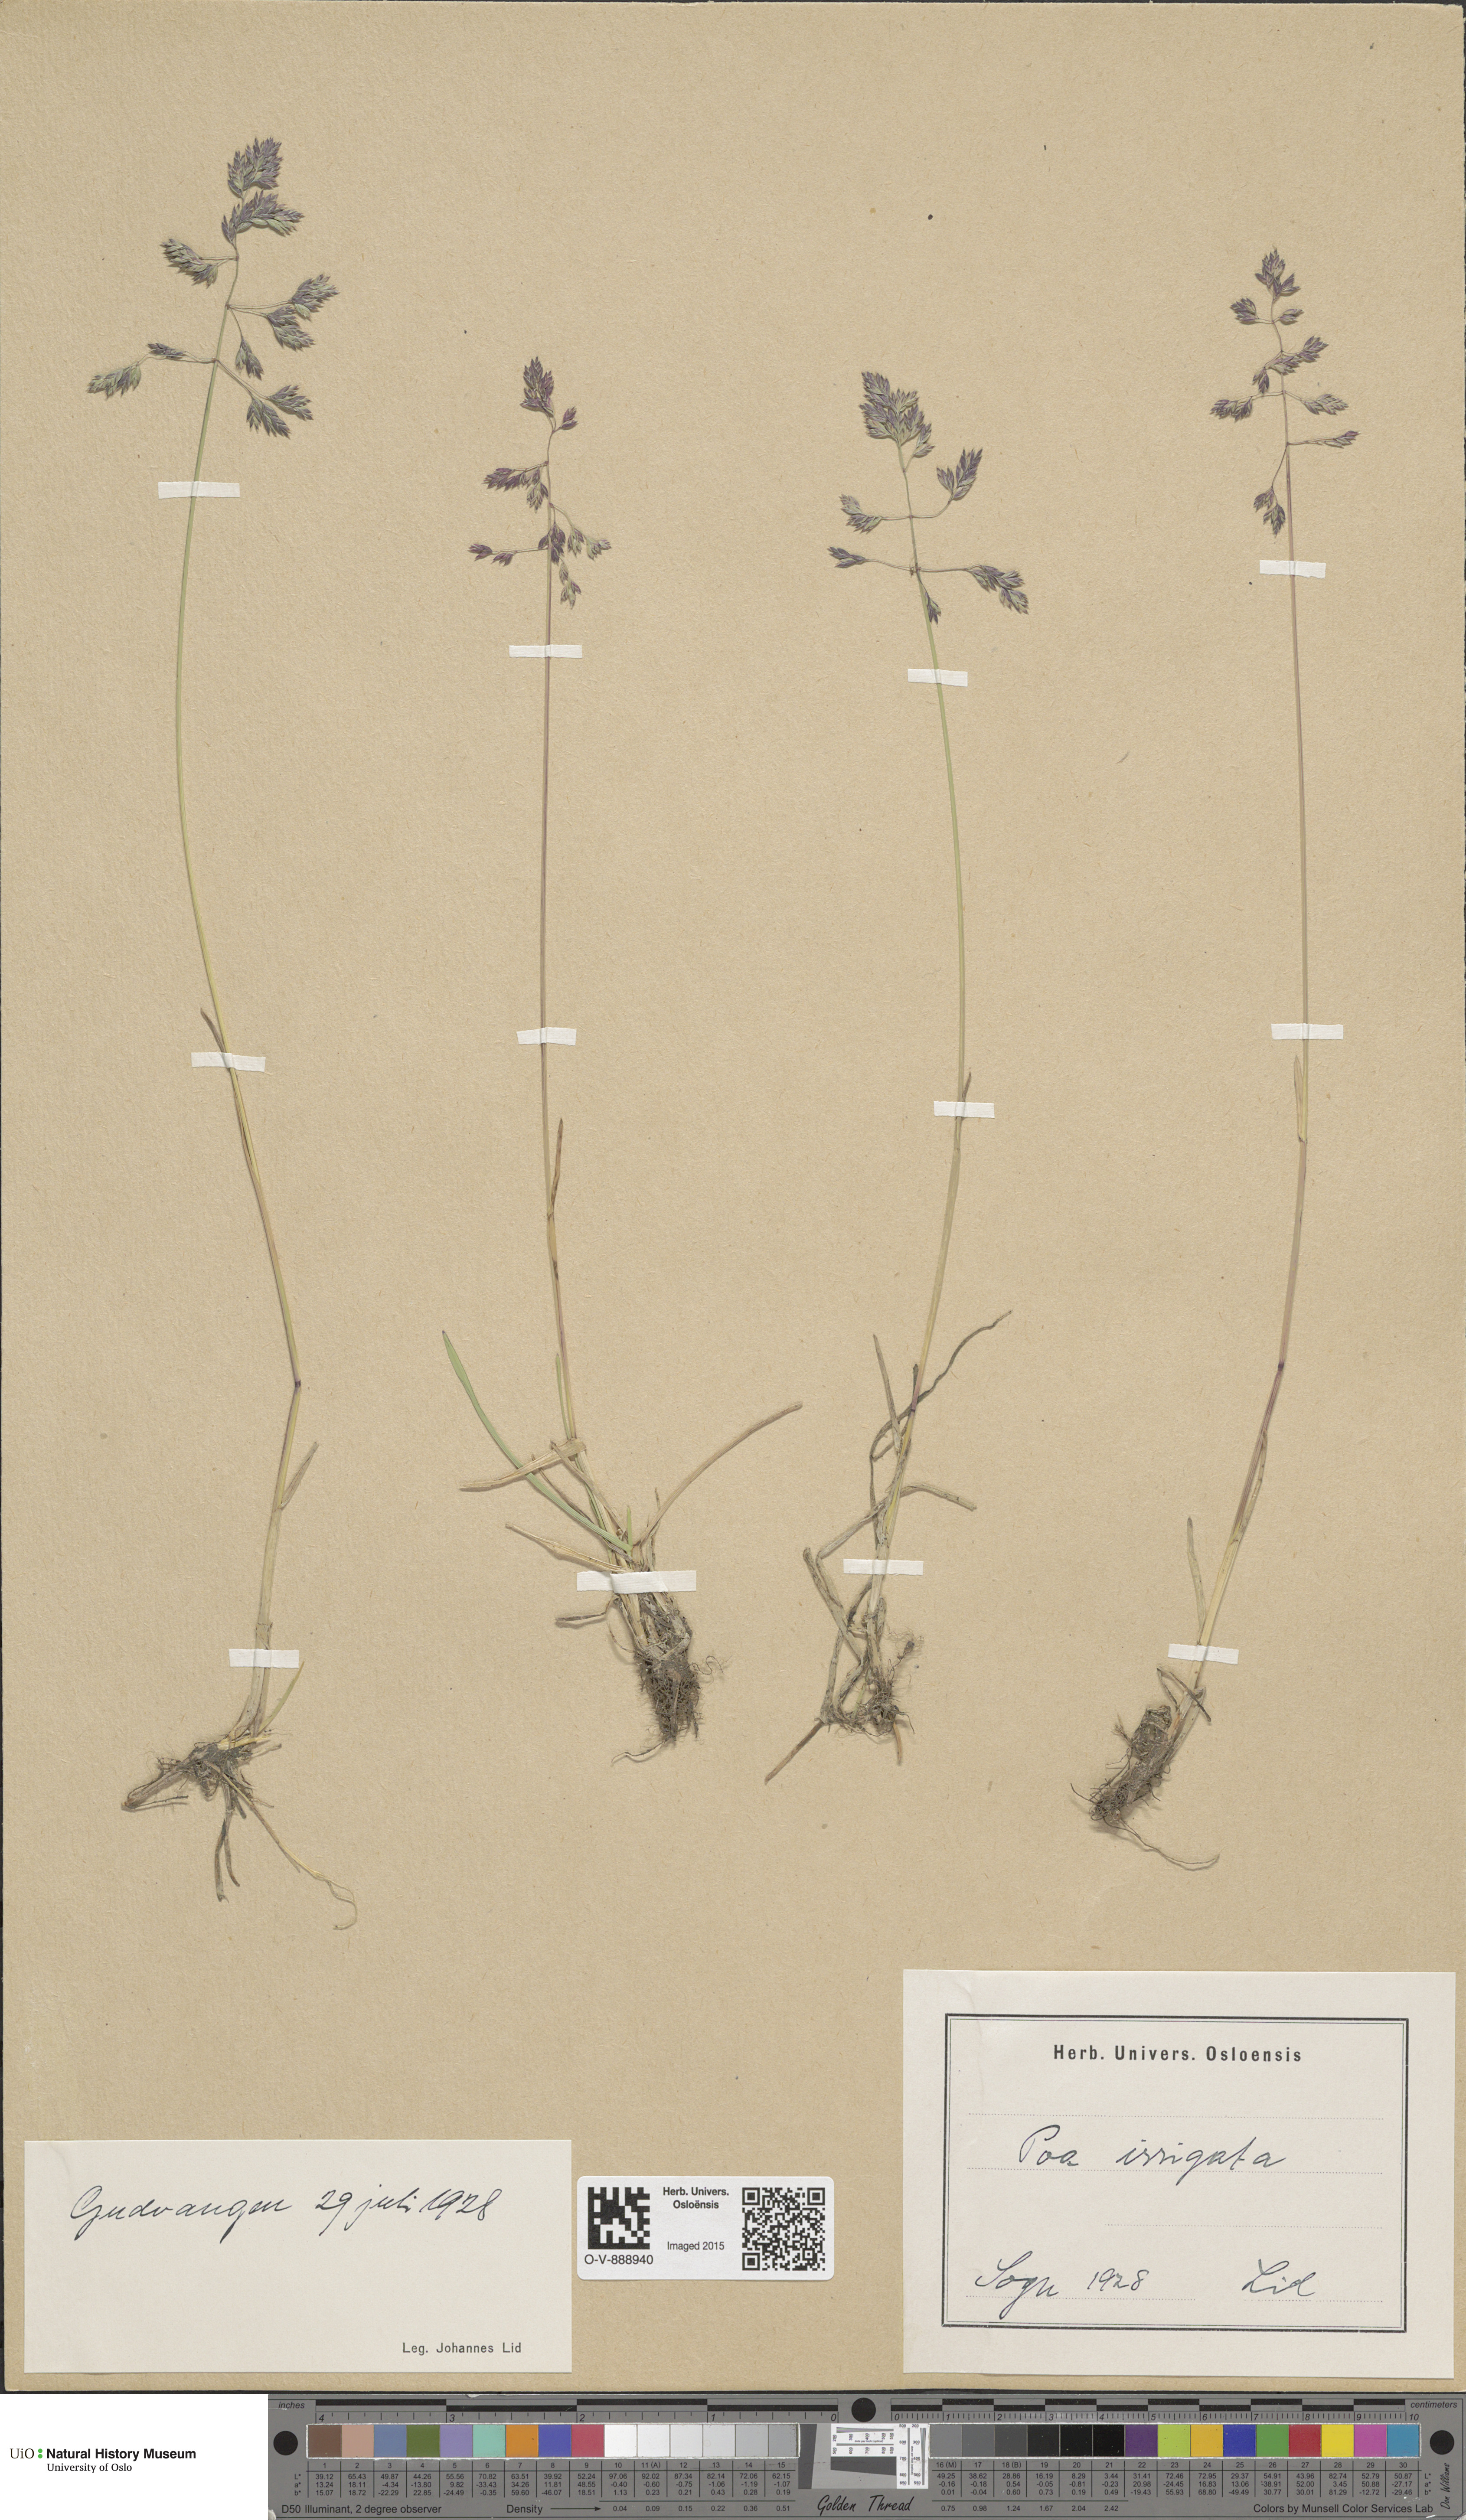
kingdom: Plantae
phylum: Tracheophyta
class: Liliopsida
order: Poales
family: Poaceae
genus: Poa
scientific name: Poa humilis
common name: Spreading meadow-grass
